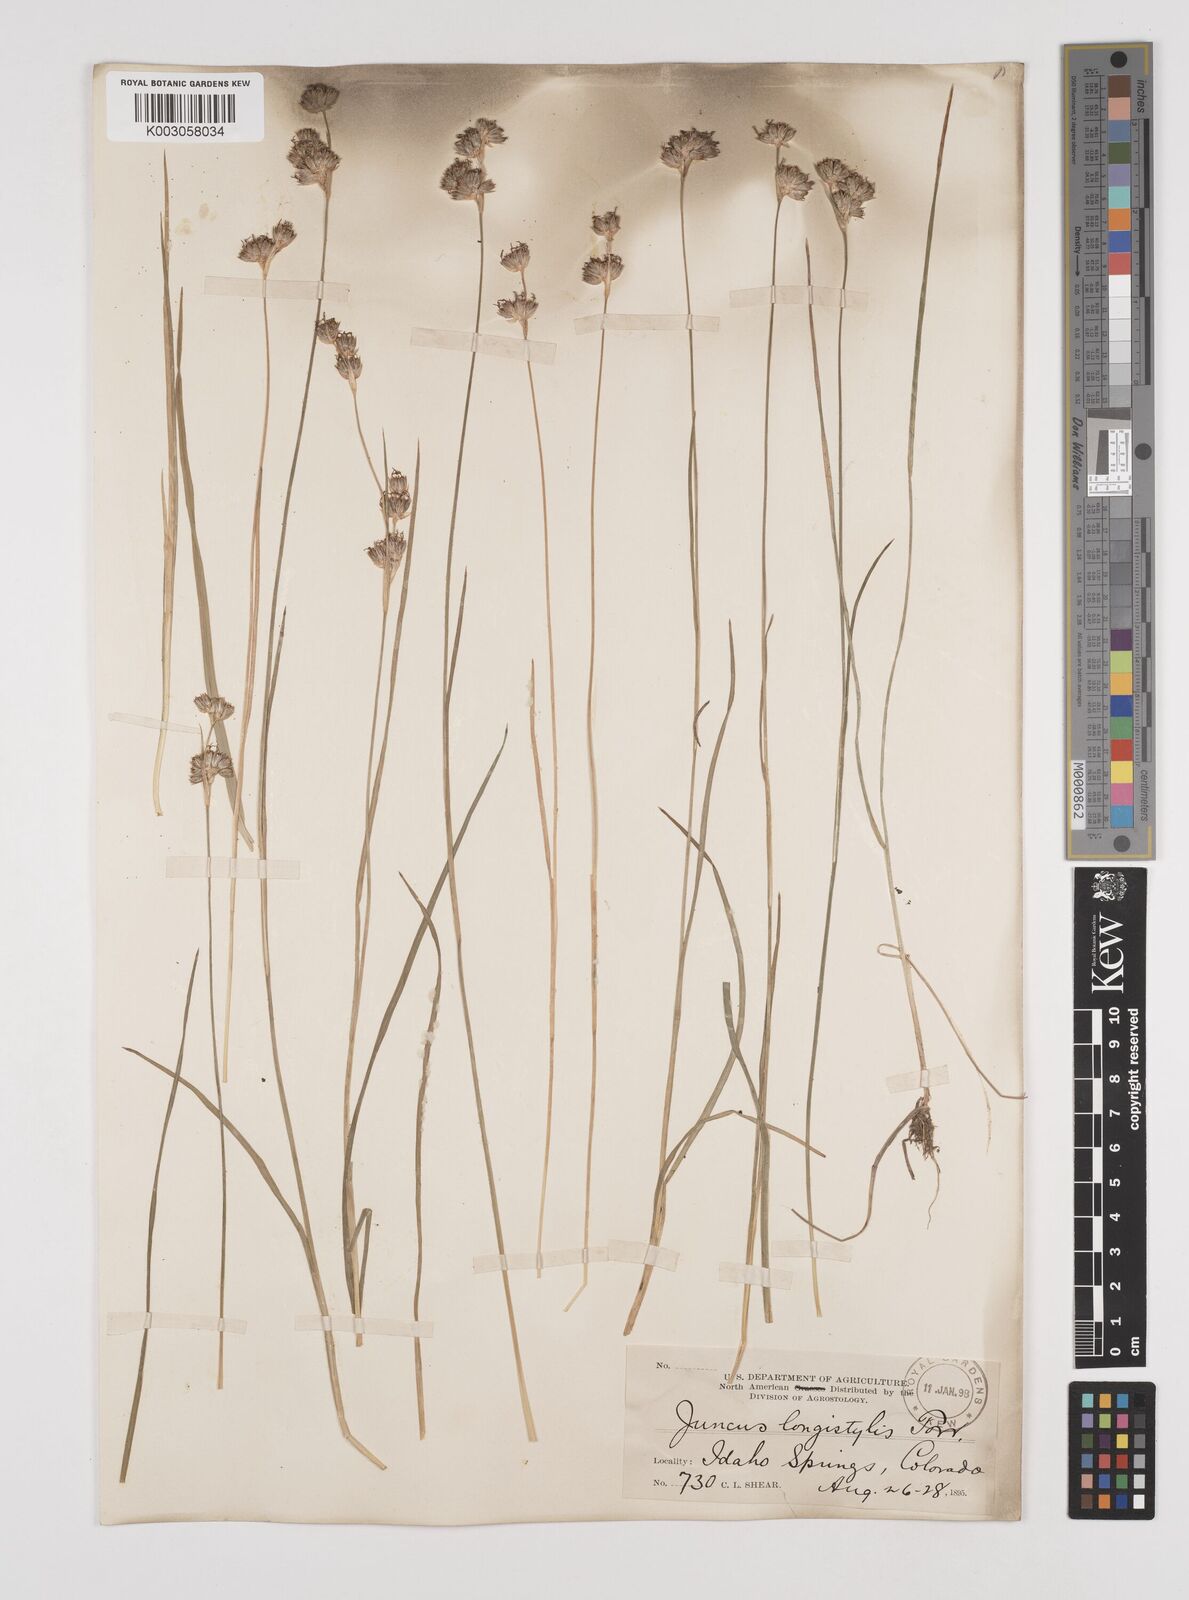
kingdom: Plantae
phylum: Tracheophyta
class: Liliopsida
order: Poales
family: Juncaceae
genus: Juncus
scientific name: Juncus longistylis
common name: Long-style rush
